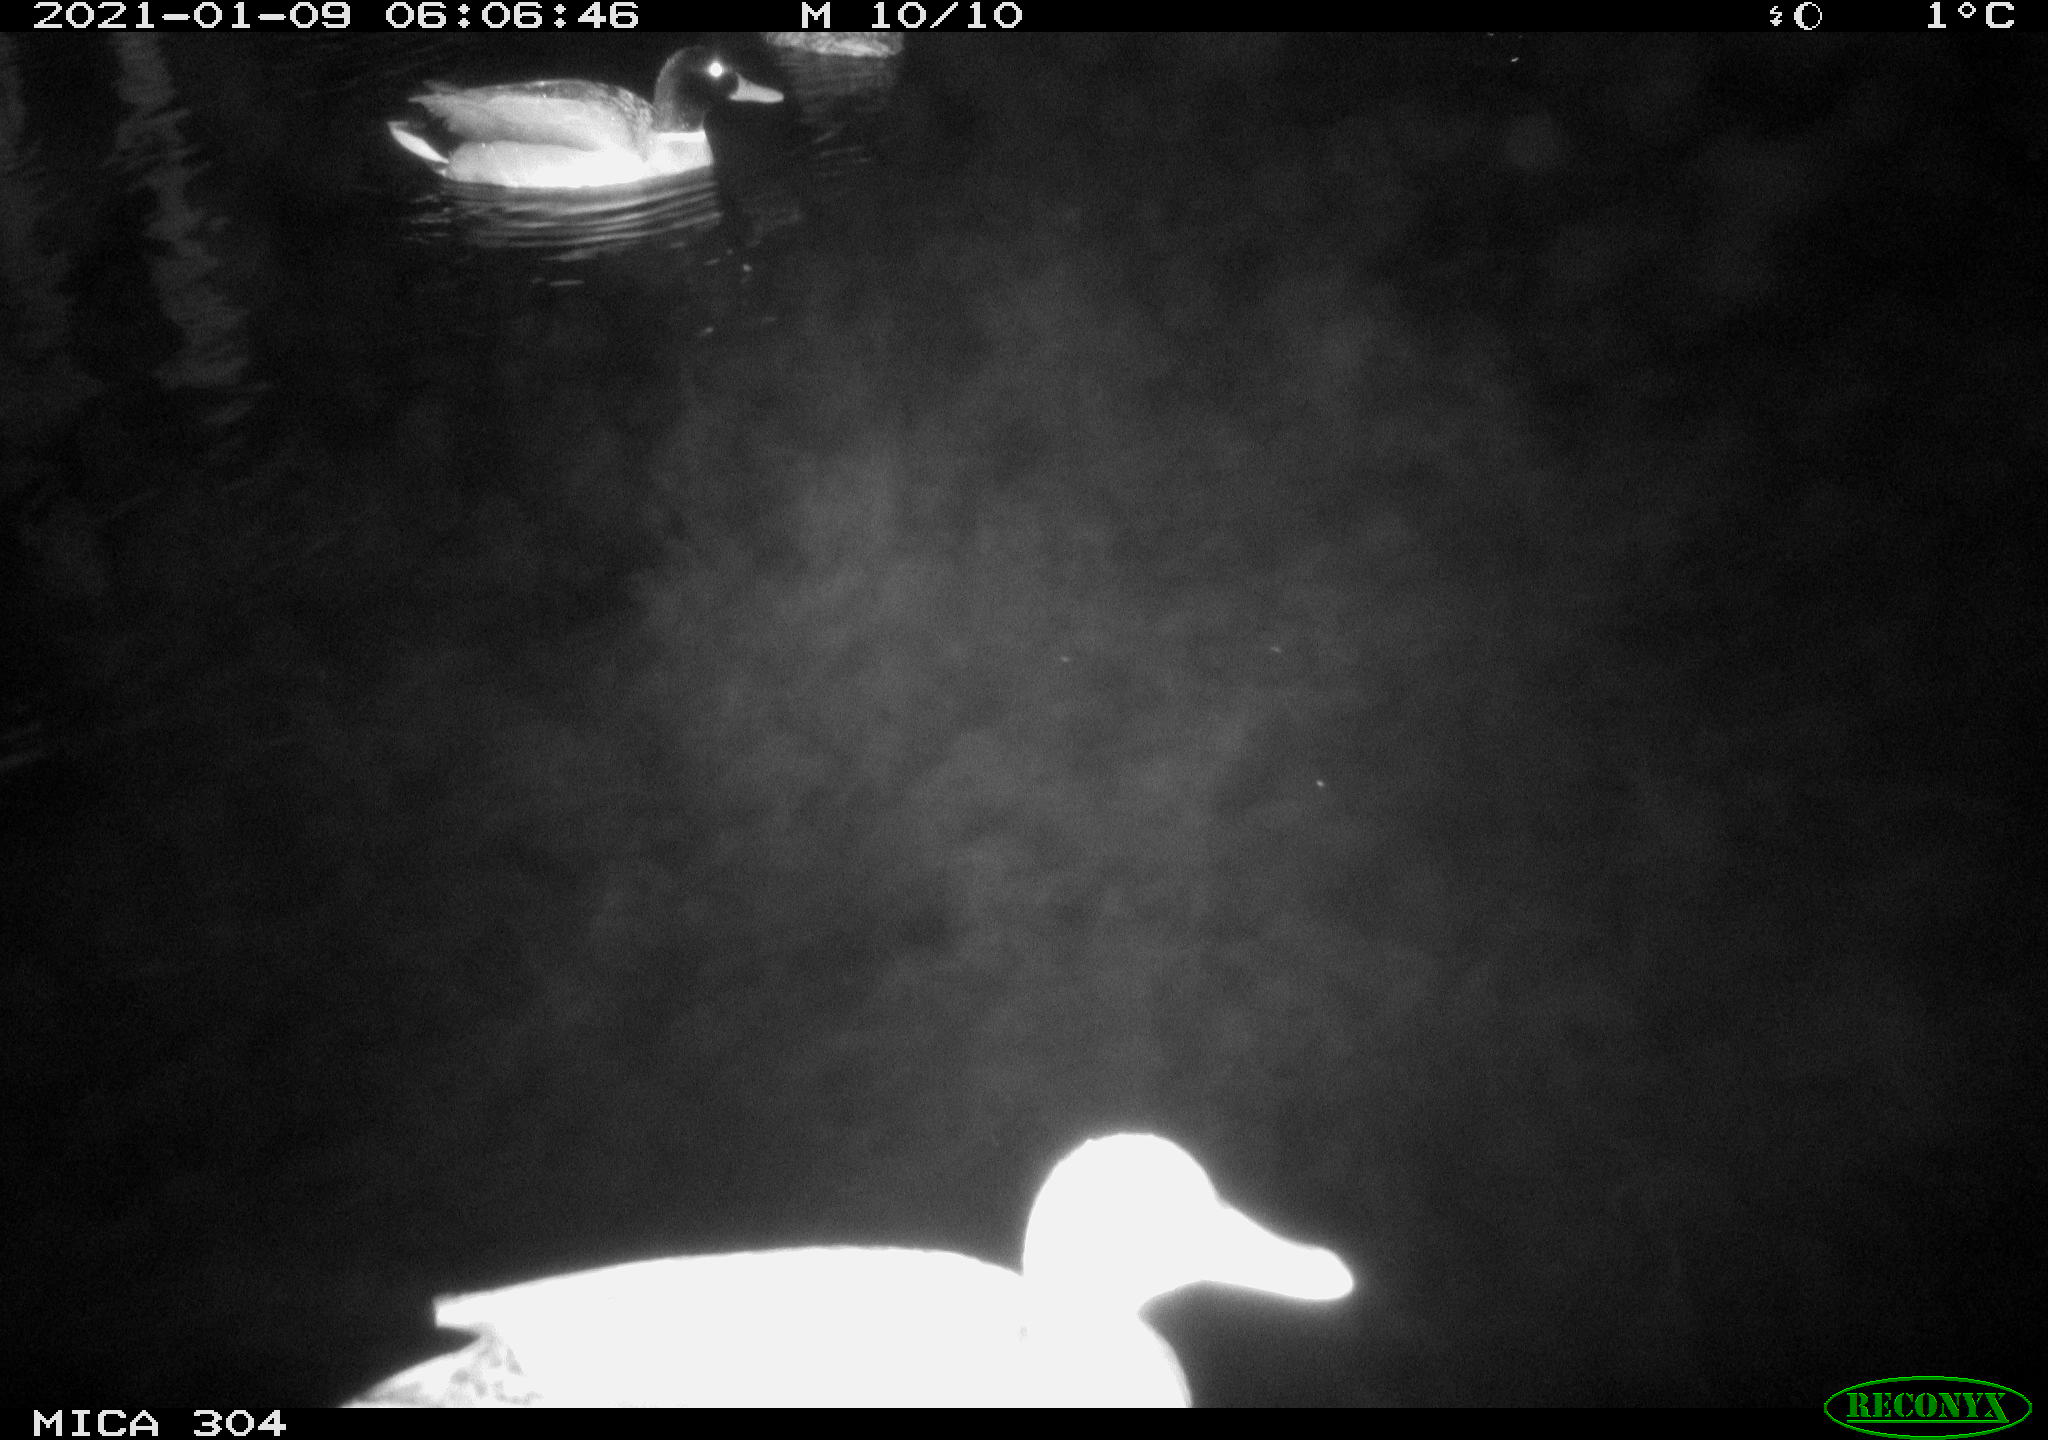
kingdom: Animalia
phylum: Chordata
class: Aves
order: Anseriformes
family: Anatidae
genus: Anas
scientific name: Anas platyrhynchos
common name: Mallard
